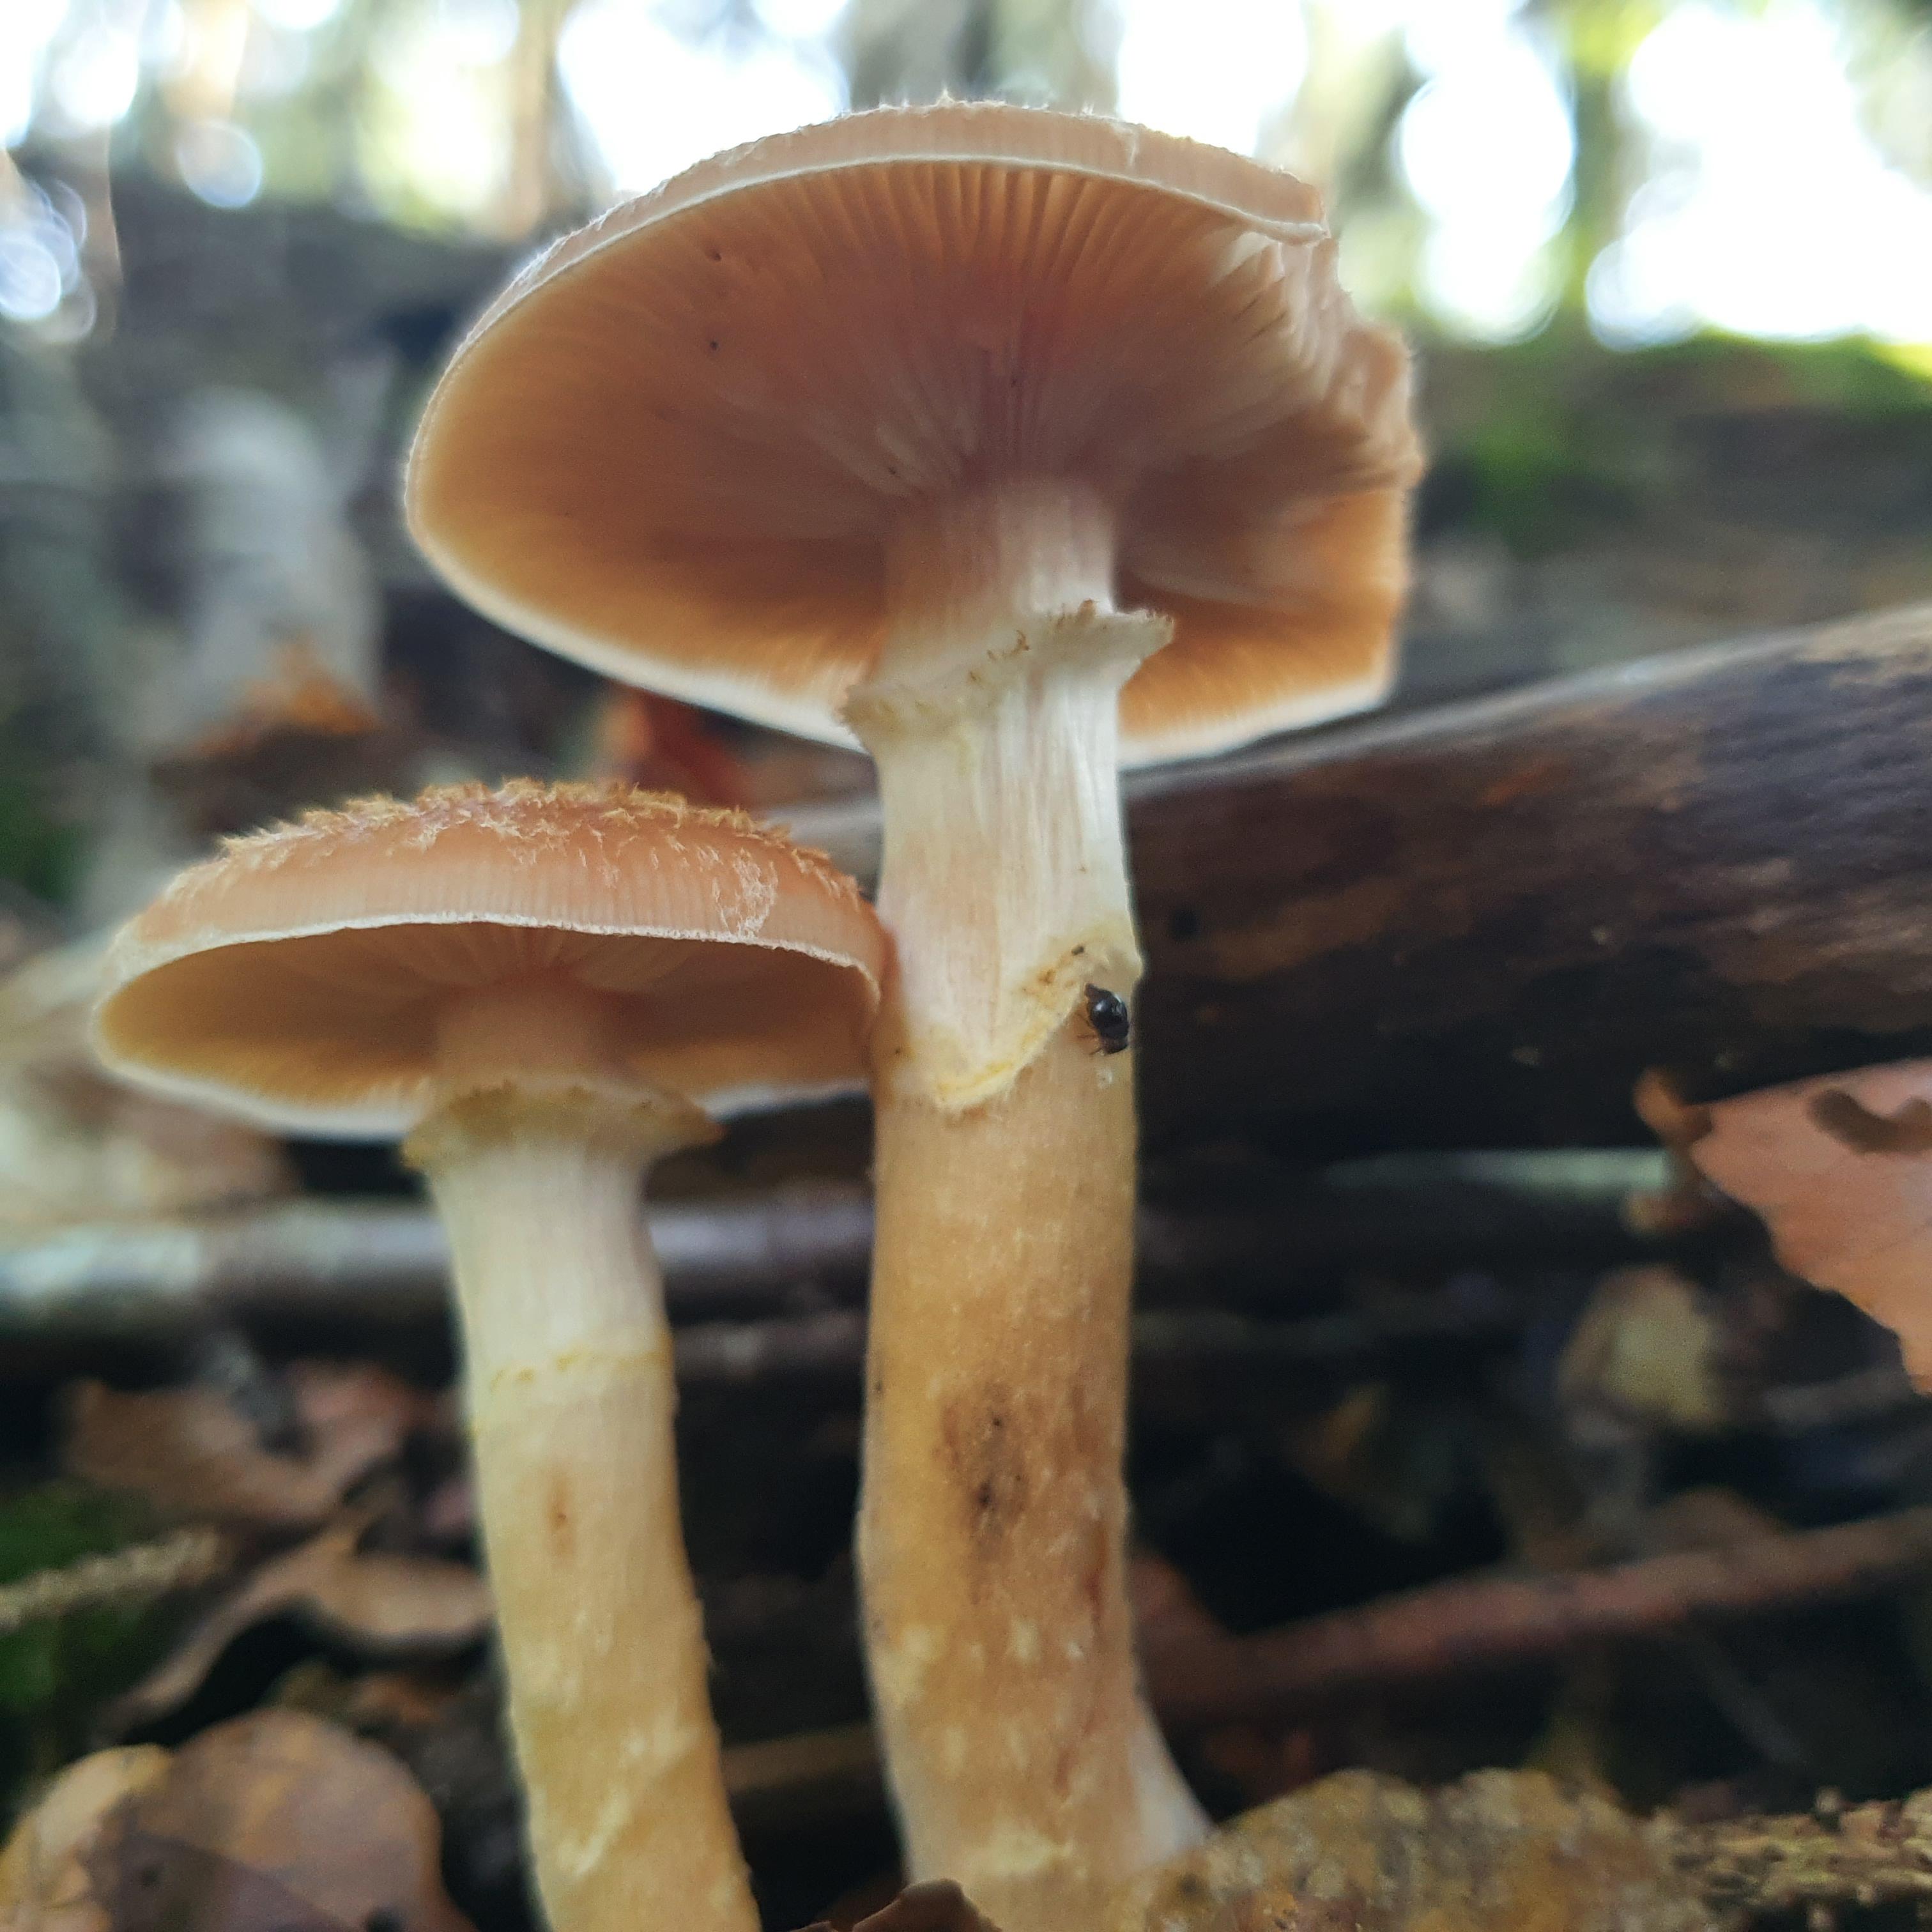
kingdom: Fungi
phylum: Basidiomycota
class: Agaricomycetes
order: Agaricales
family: Physalacriaceae
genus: Armillaria
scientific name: Armillaria lutea
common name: køllestokket honningsvamp
